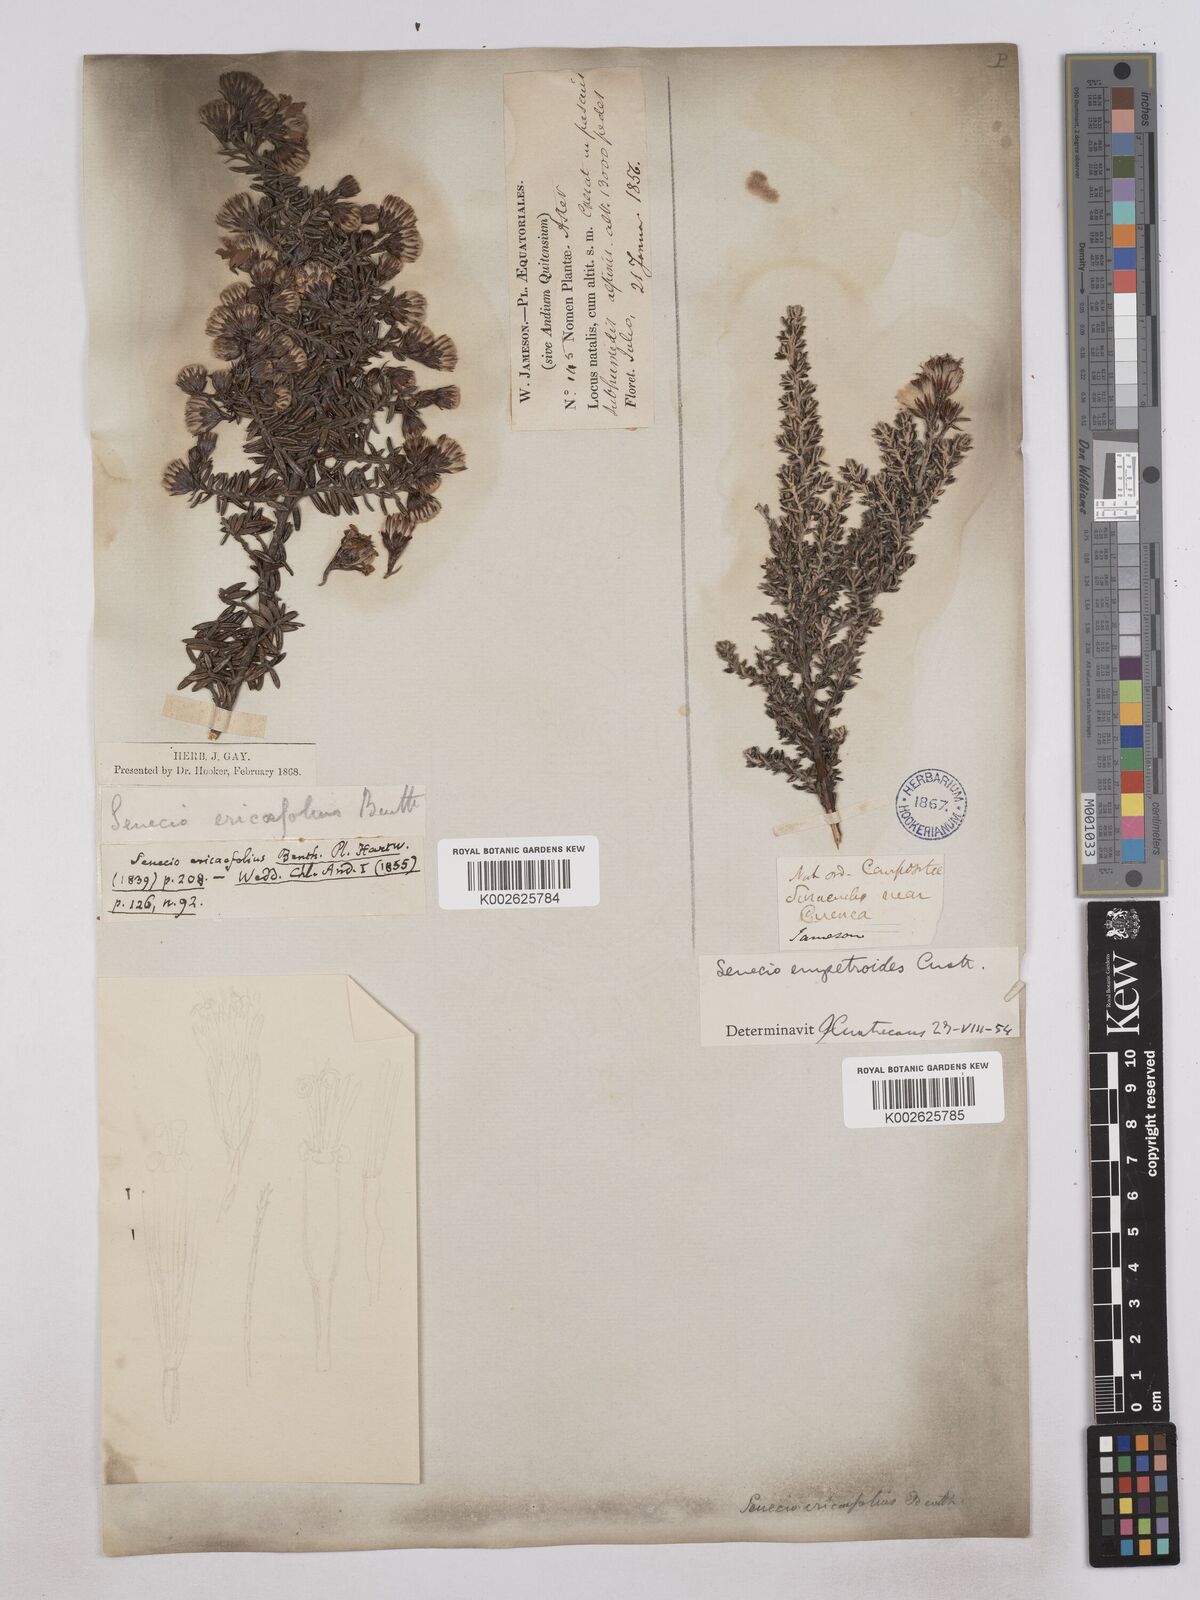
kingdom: Plantae
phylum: Tracheophyta
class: Magnoliopsida
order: Asterales
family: Asteraceae
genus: Monticalia
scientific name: Monticalia peruviana
